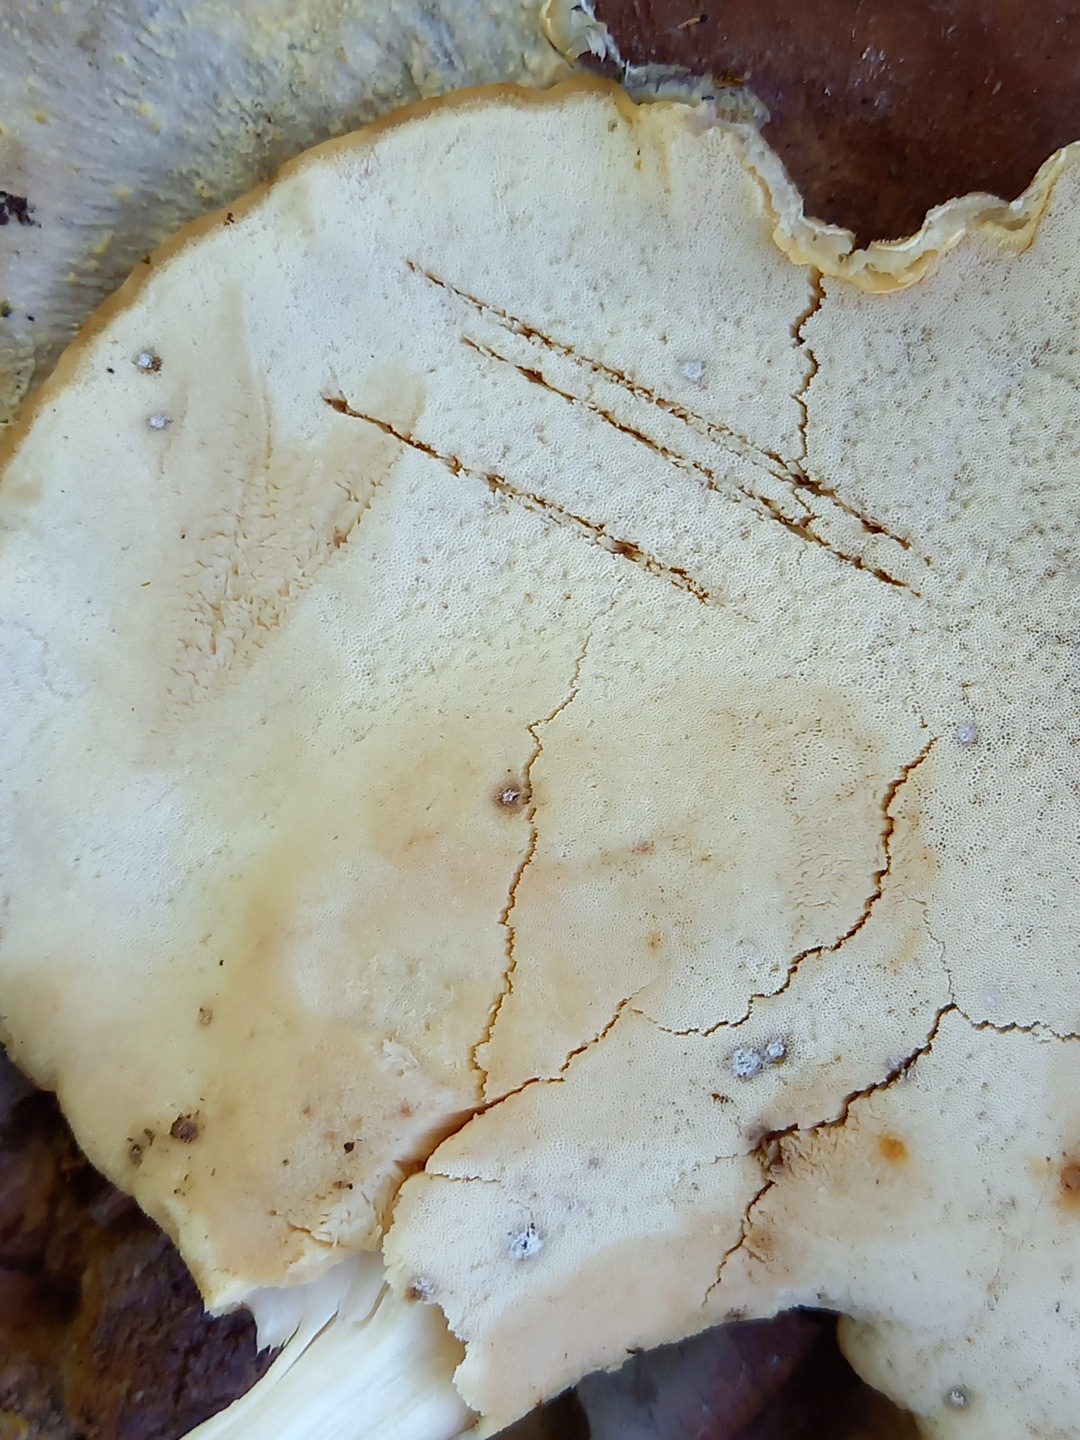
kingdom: Fungi
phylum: Basidiomycota
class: Agaricomycetes
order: Polyporales
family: Meripilaceae
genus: Meripilus
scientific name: Meripilus giganteus
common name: kæmpeporesvamp
